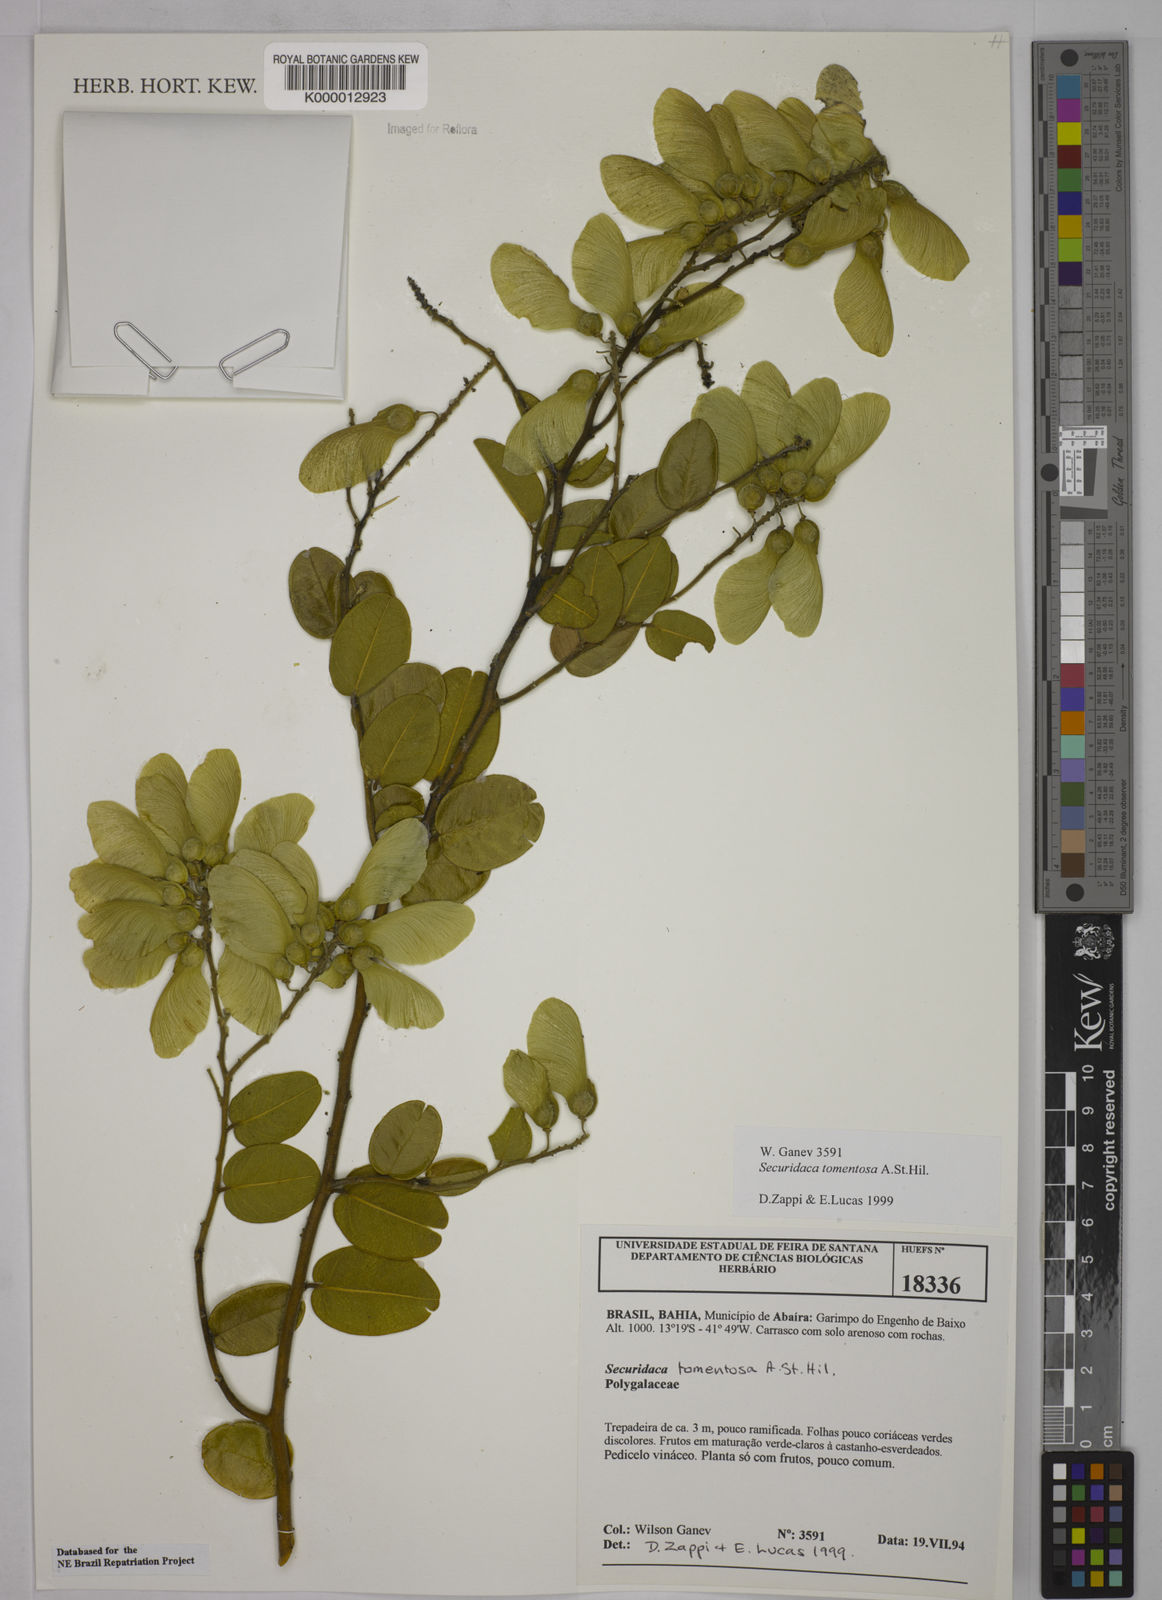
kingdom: Plantae
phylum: Tracheophyta
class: Magnoliopsida
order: Fabales
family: Polygalaceae
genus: Securidaca
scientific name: Securidaca tomentosa
